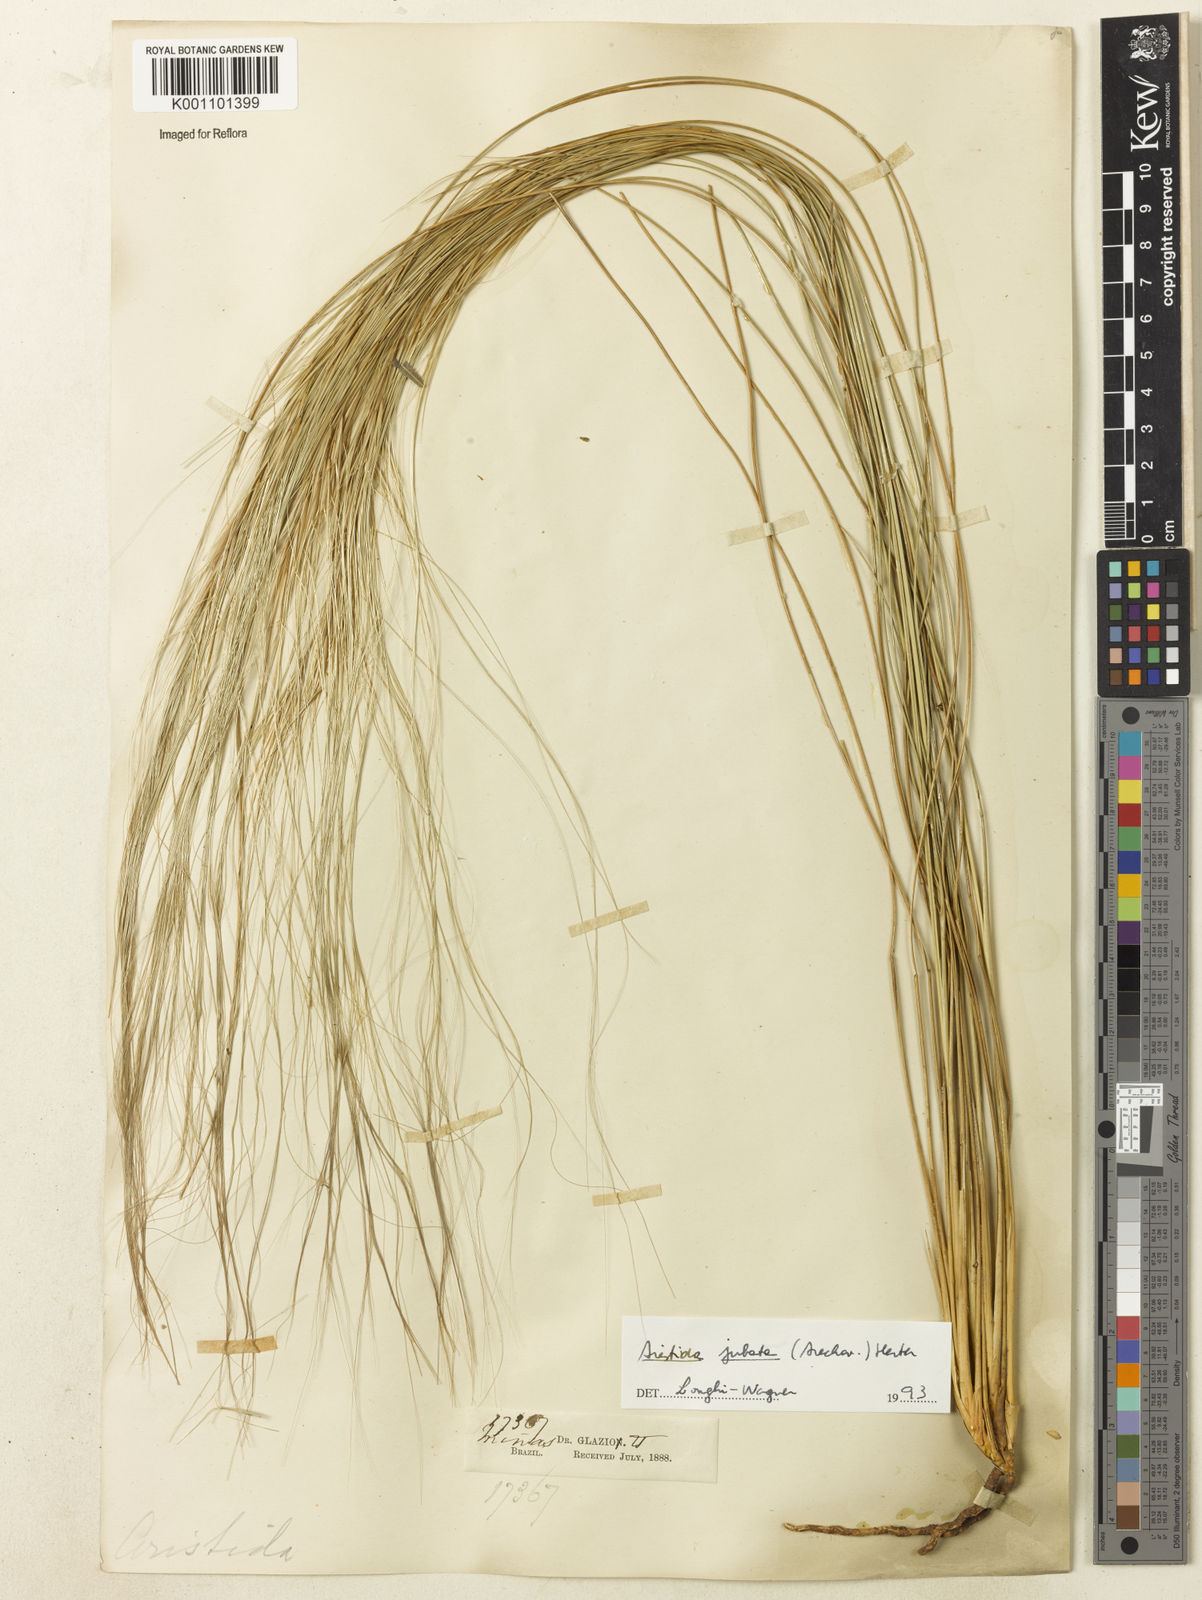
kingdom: Plantae
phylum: Tracheophyta
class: Liliopsida
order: Poales
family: Poaceae
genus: Aristida
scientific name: Aristida jubata
